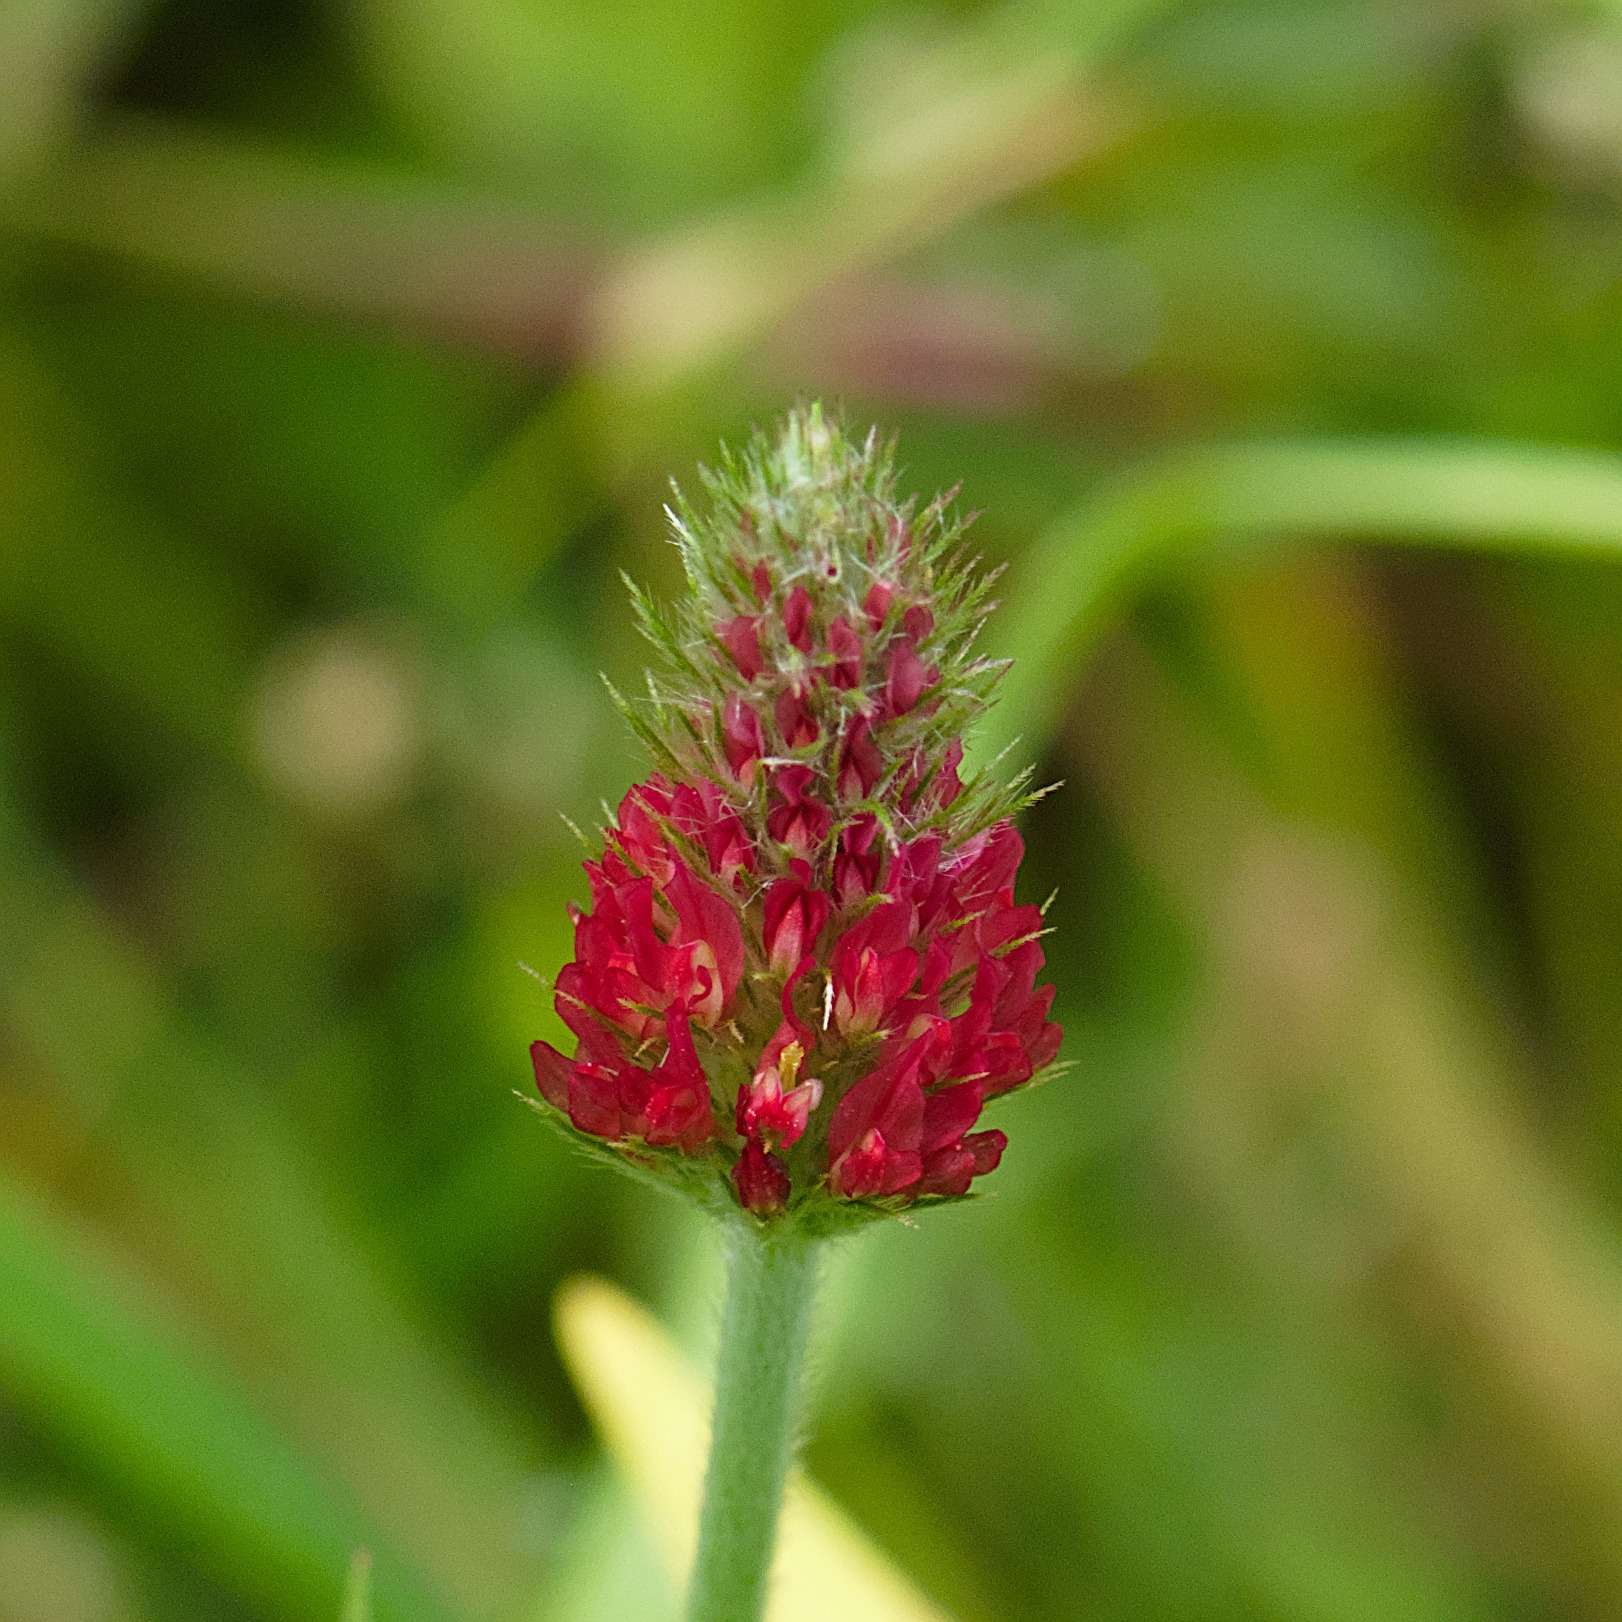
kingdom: Plantae
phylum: Tracheophyta
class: Magnoliopsida
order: Fabales
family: Fabaceae
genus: Trifolium
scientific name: Trifolium incarnatum
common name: Blod-kløver
